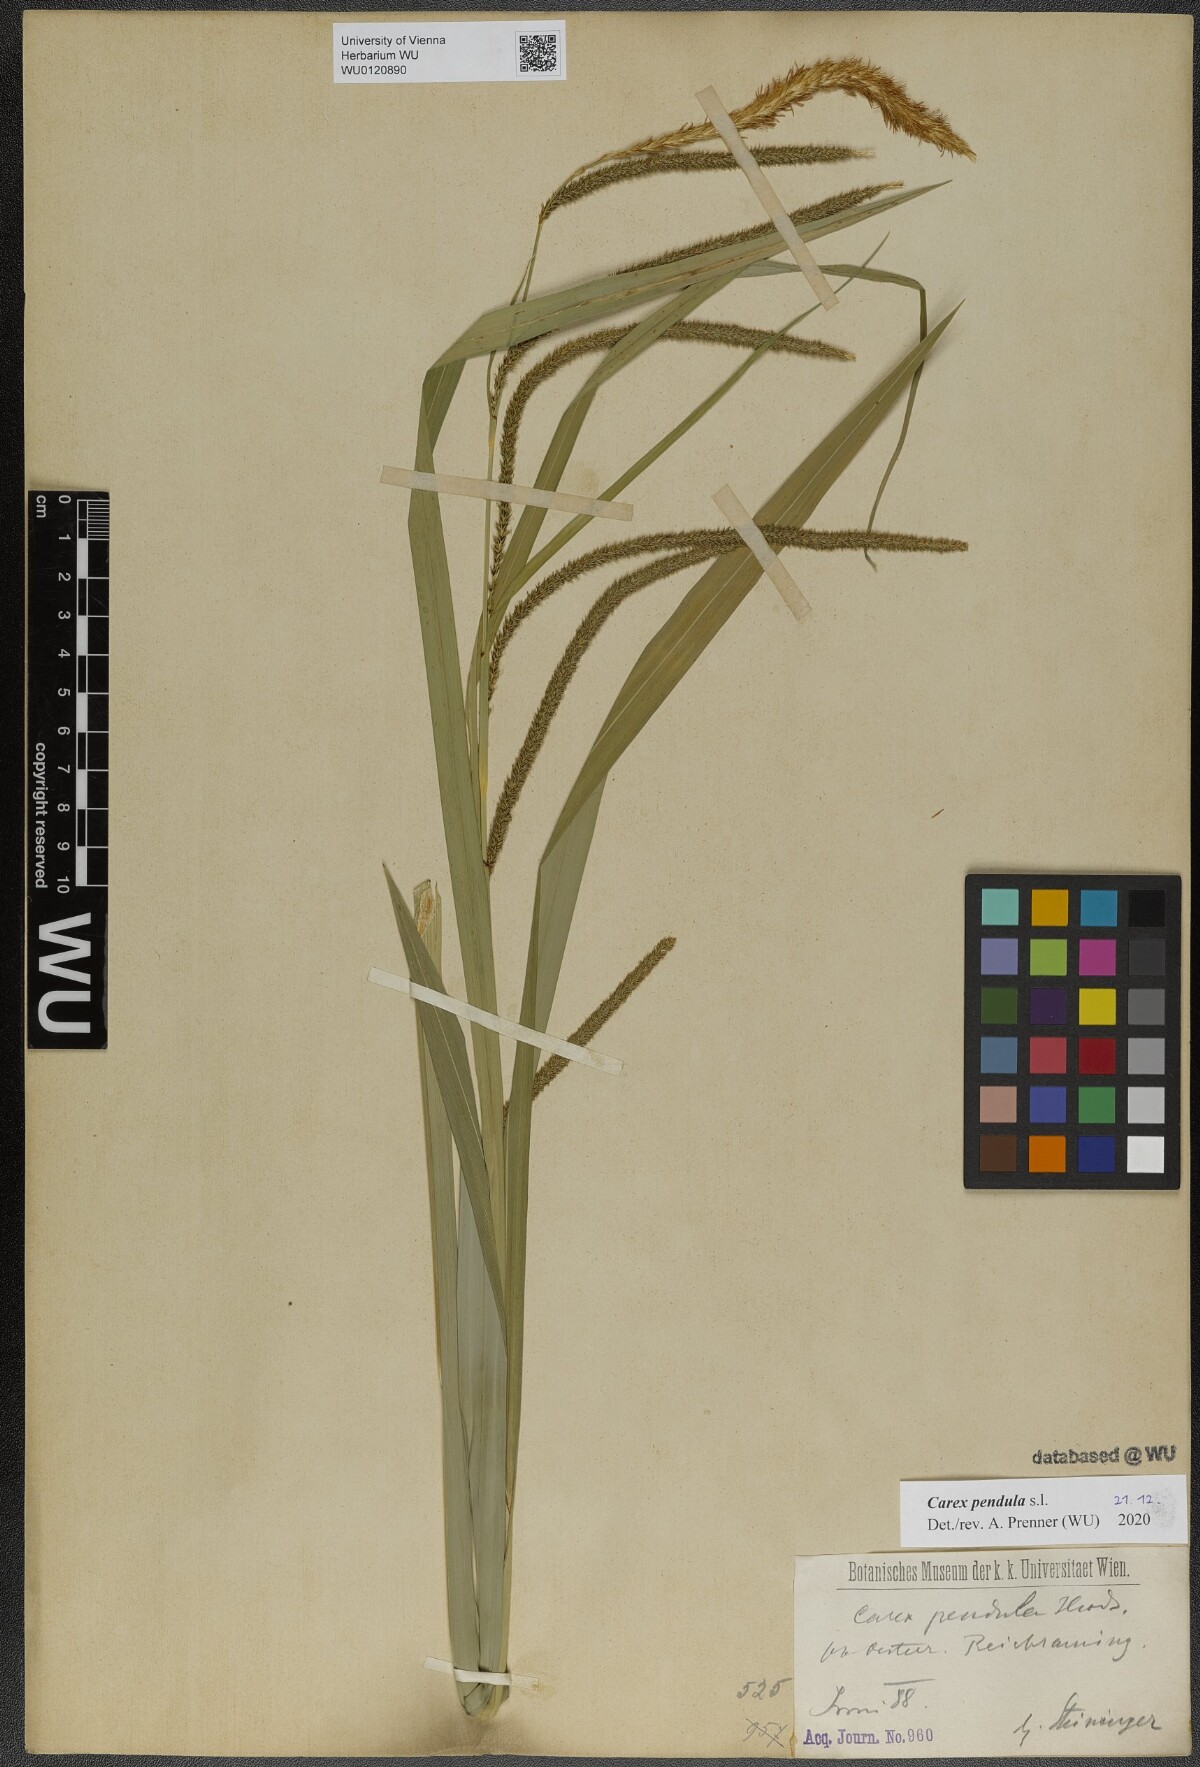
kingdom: Plantae
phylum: Tracheophyta
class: Liliopsida
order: Poales
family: Cyperaceae
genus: Carex
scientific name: Carex pendula
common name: Pendulous sedge
